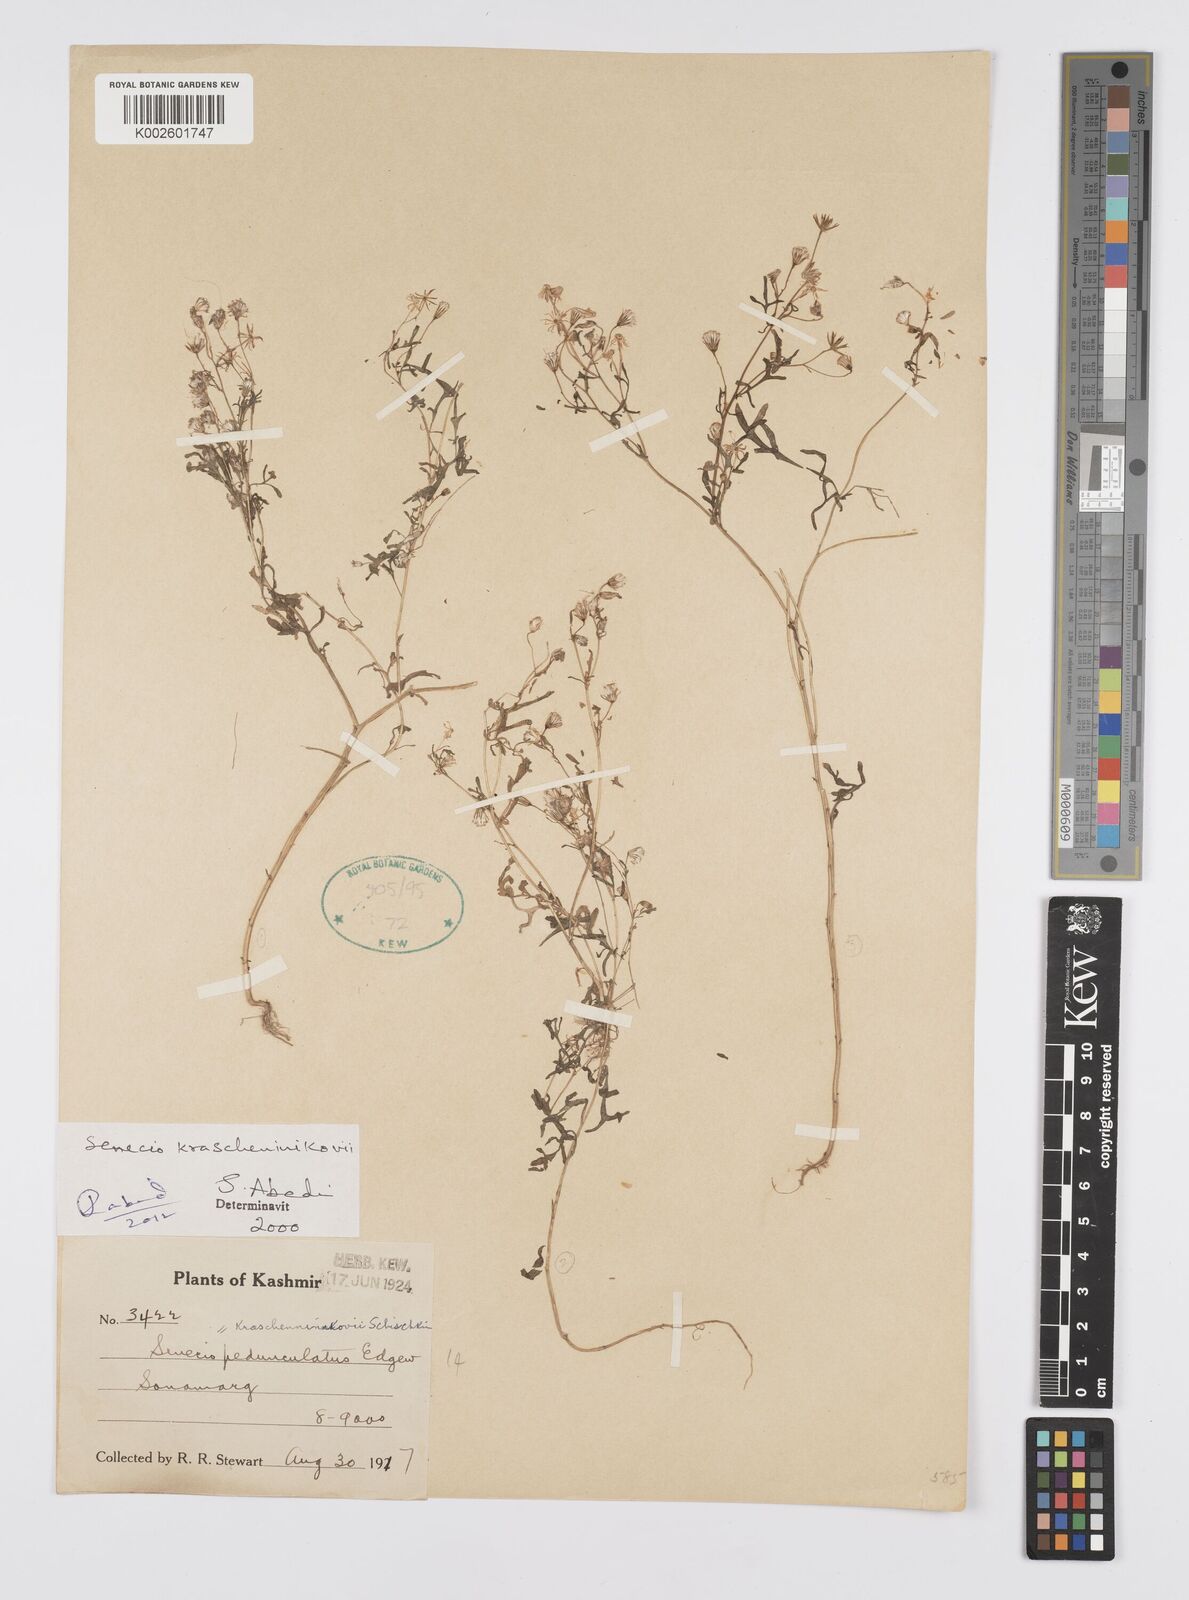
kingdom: Plantae
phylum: Tracheophyta
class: Magnoliopsida
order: Asterales
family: Asteraceae
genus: Senecio
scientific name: Senecio krascheninnikovii
